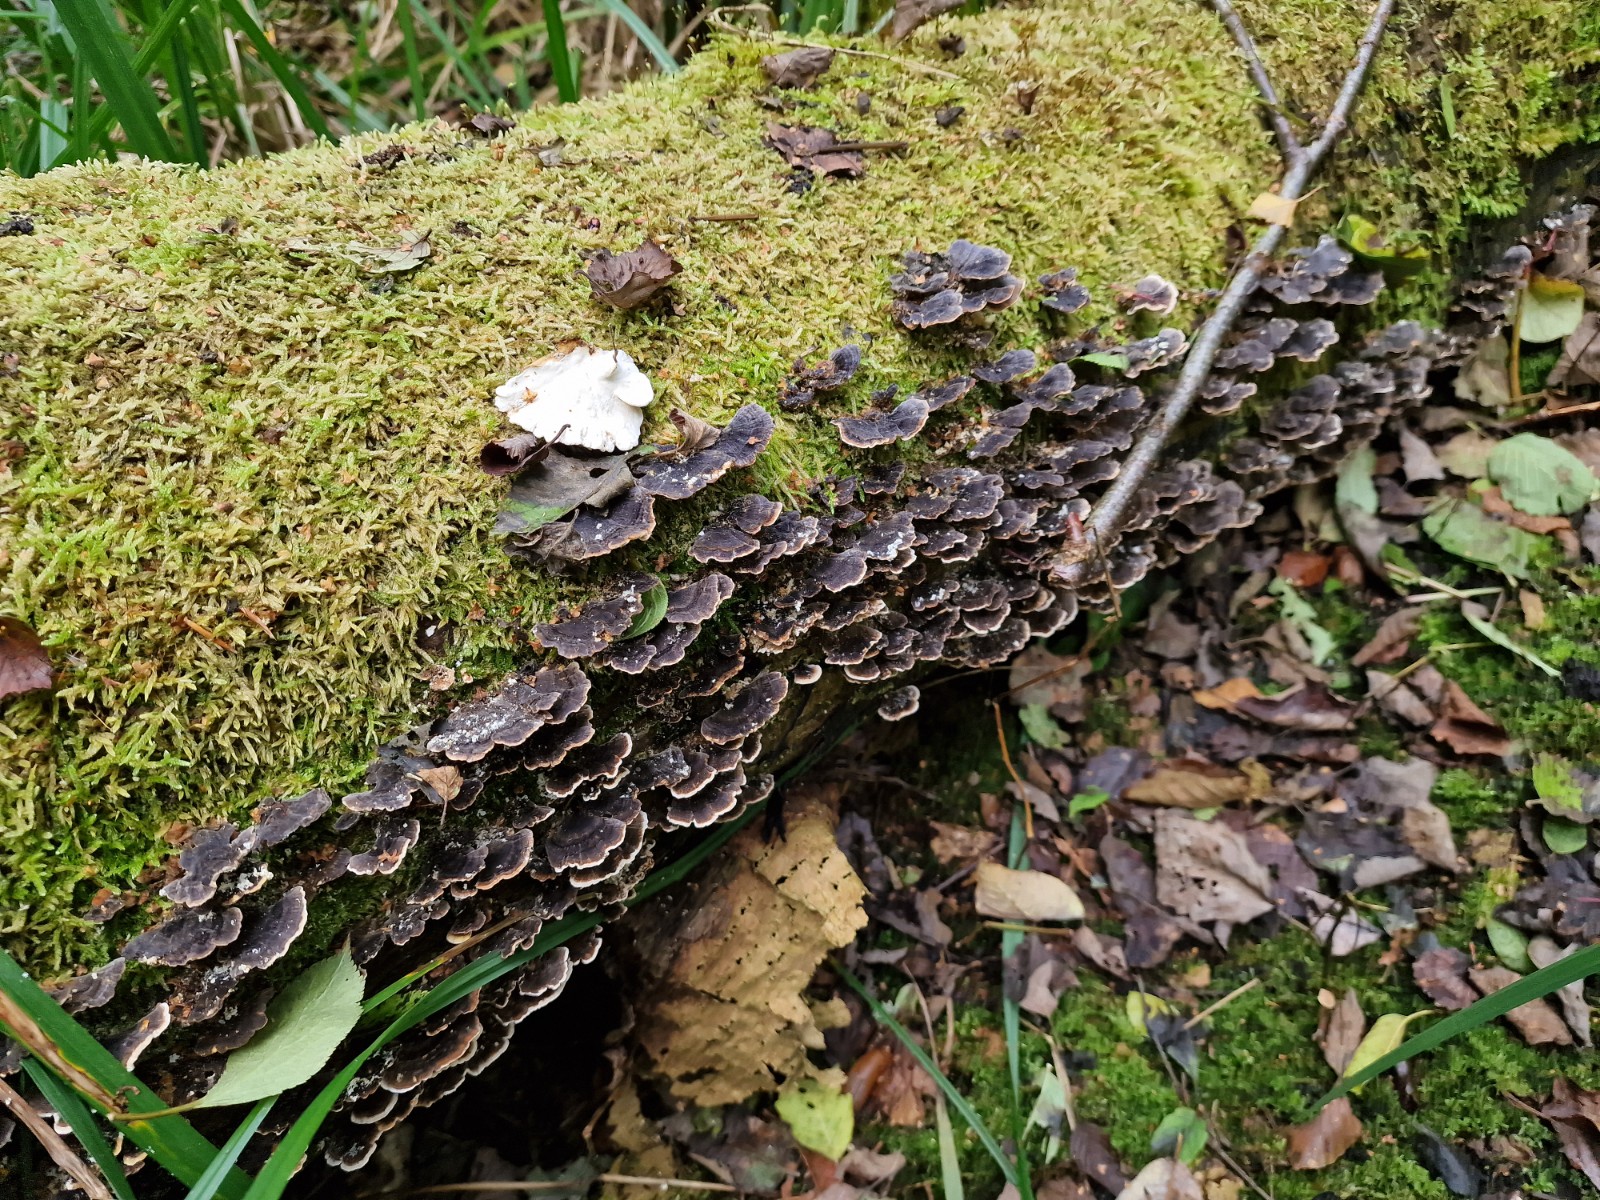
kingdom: Fungi
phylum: Basidiomycota
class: Agaricomycetes
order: Polyporales
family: Polyporaceae
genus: Trametes
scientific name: Trametes versicolor
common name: broget læderporesvamp
